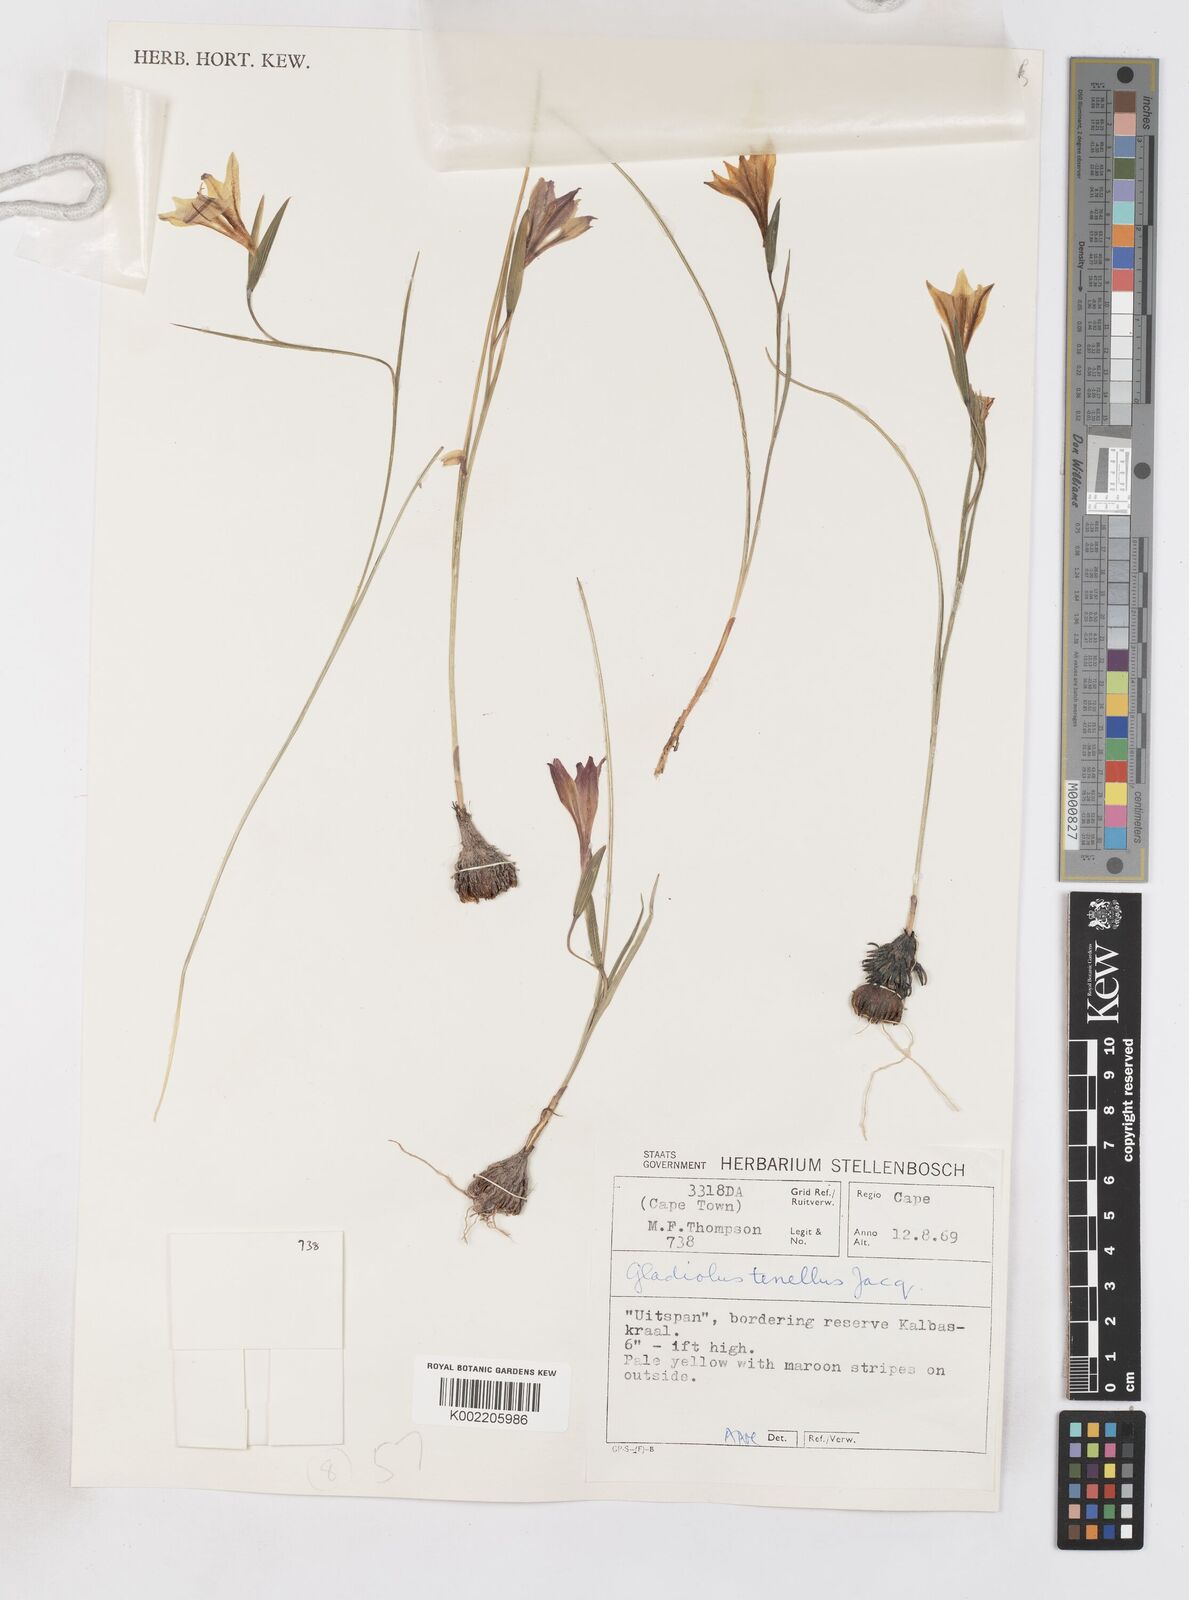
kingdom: Plantae
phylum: Tracheophyta
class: Liliopsida
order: Asparagales
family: Iridaceae
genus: Gladiolus
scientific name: Gladiolus carinatus
